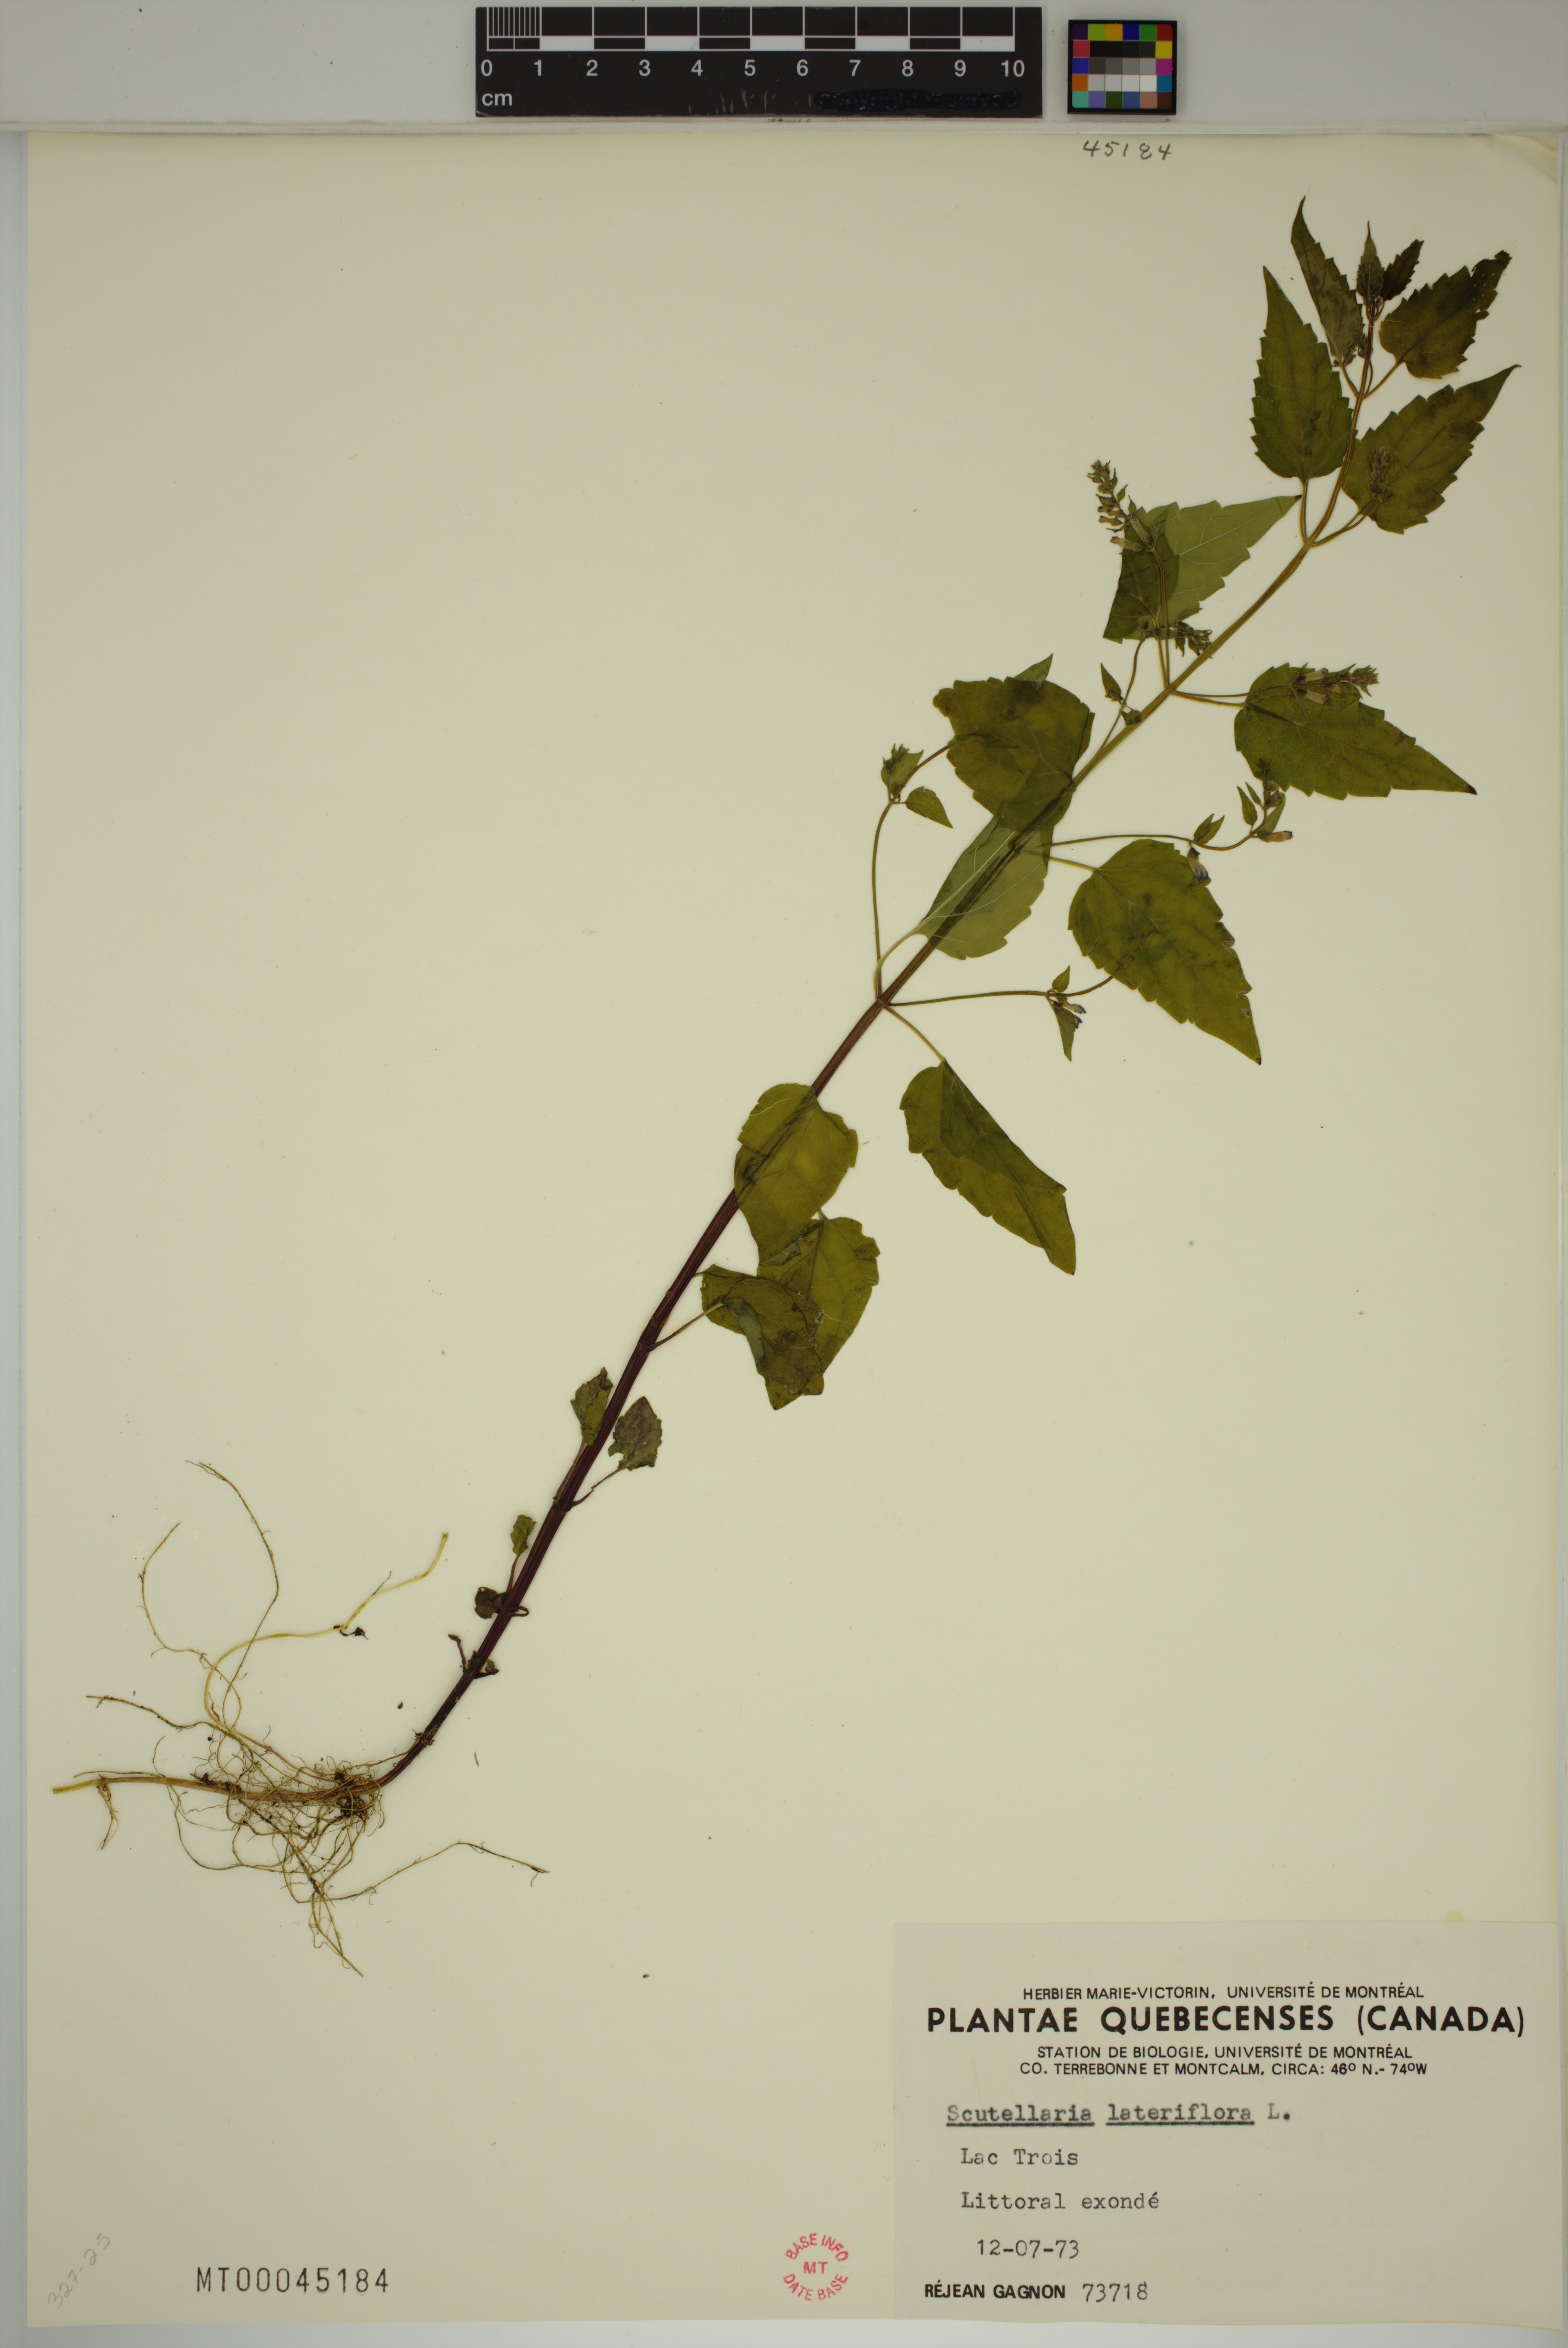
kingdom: Plantae
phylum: Tracheophyta
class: Magnoliopsida
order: Lamiales
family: Lamiaceae
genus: Scutellaria
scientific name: Scutellaria lateriflora
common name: Blue skullcap
